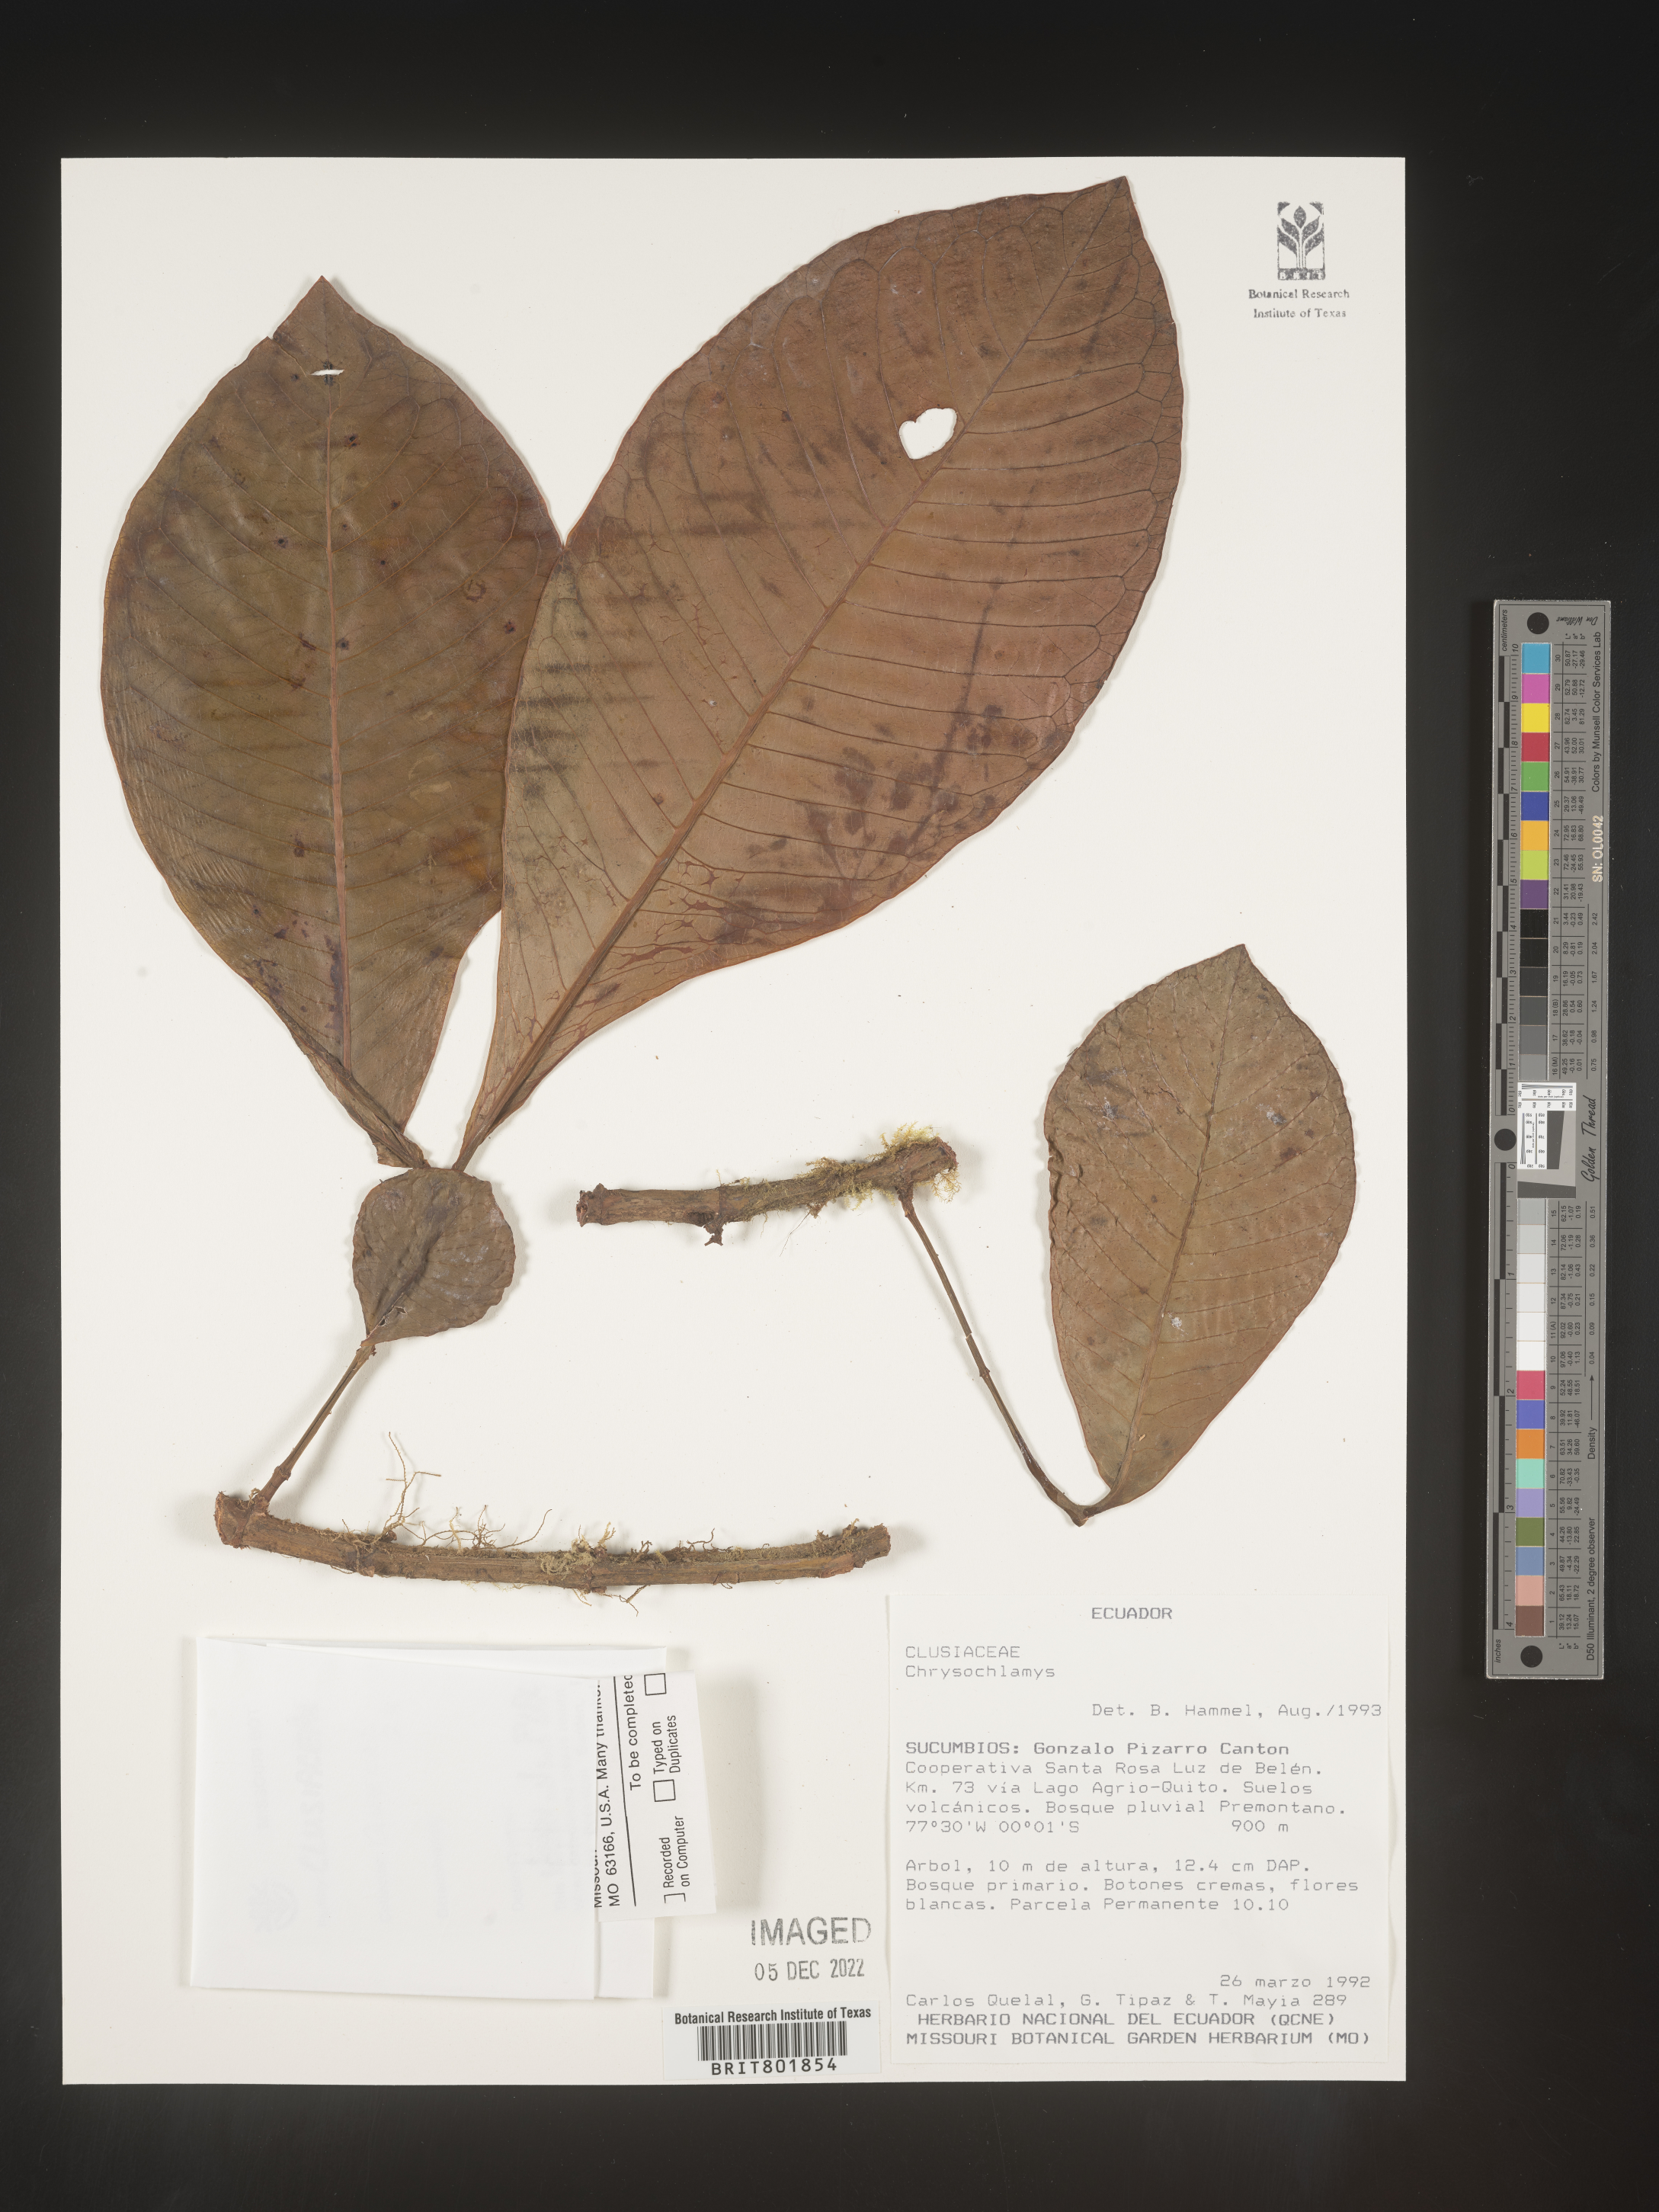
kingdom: Plantae
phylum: Tracheophyta
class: Magnoliopsida
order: Malpighiales
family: Clusiaceae
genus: Chrysochlamys
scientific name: Chrysochlamys
